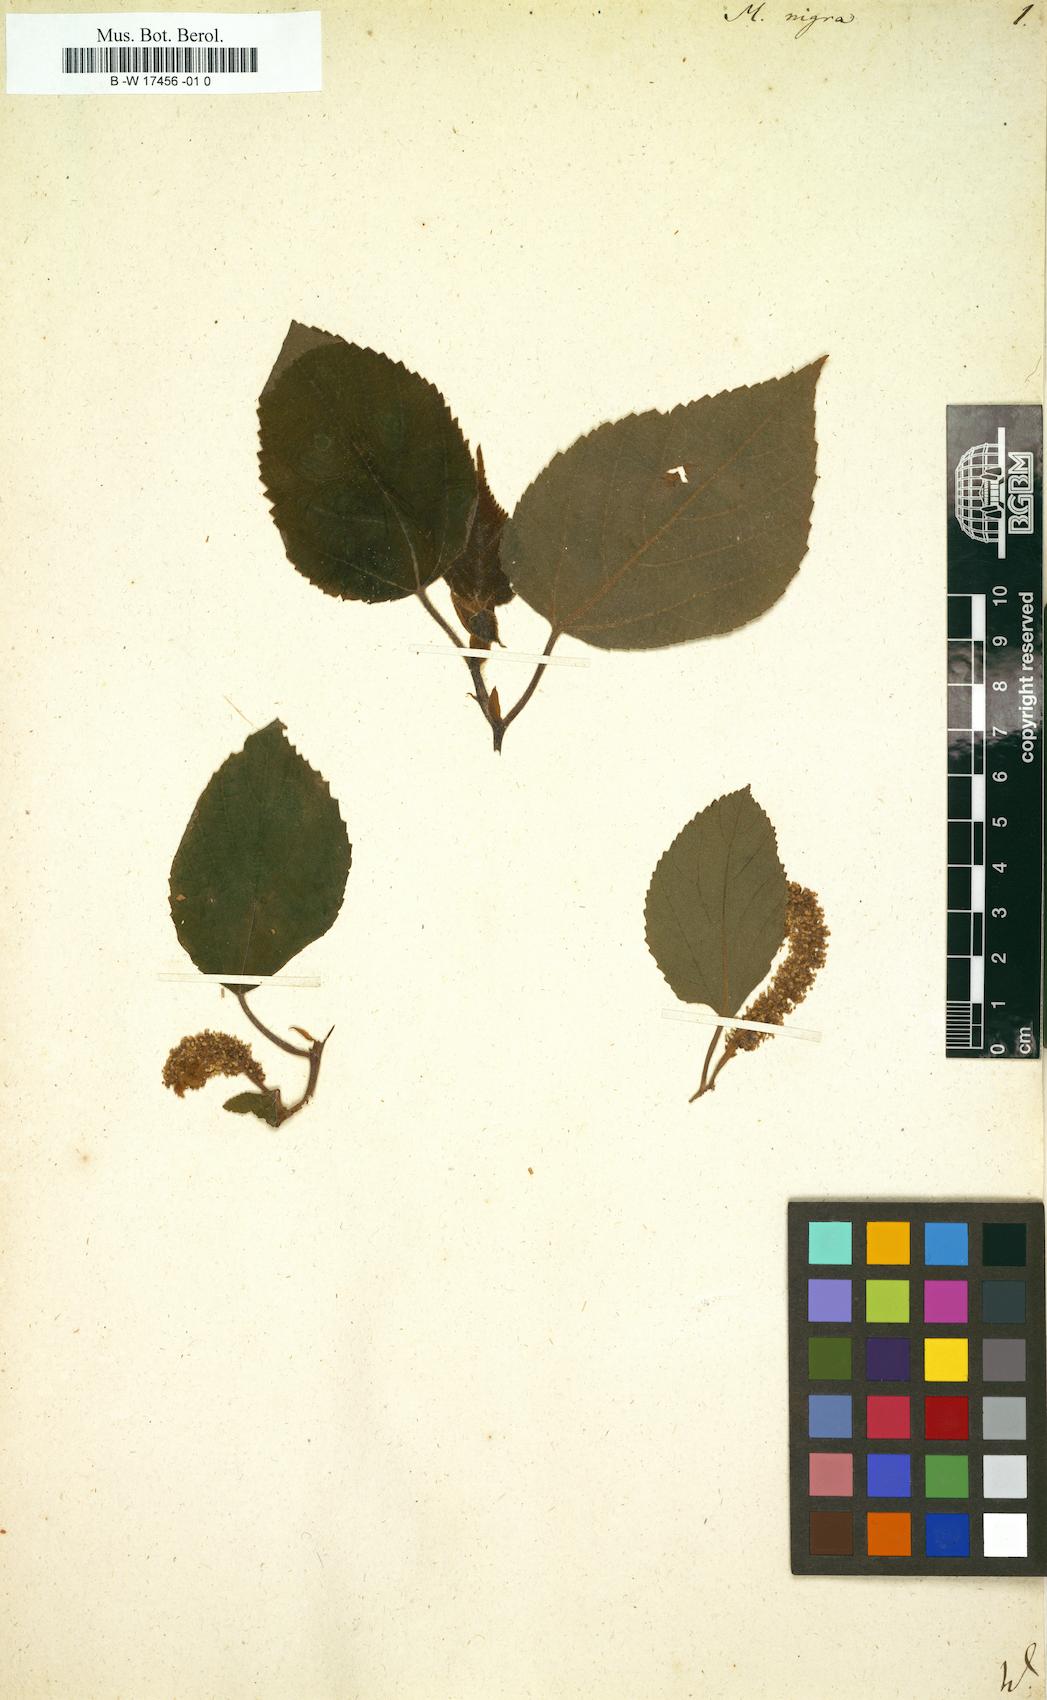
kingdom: Plantae
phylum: Tracheophyta
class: Magnoliopsida
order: Rosales
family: Moraceae
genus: Morus
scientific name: Morus nigra
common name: Black mulberry
